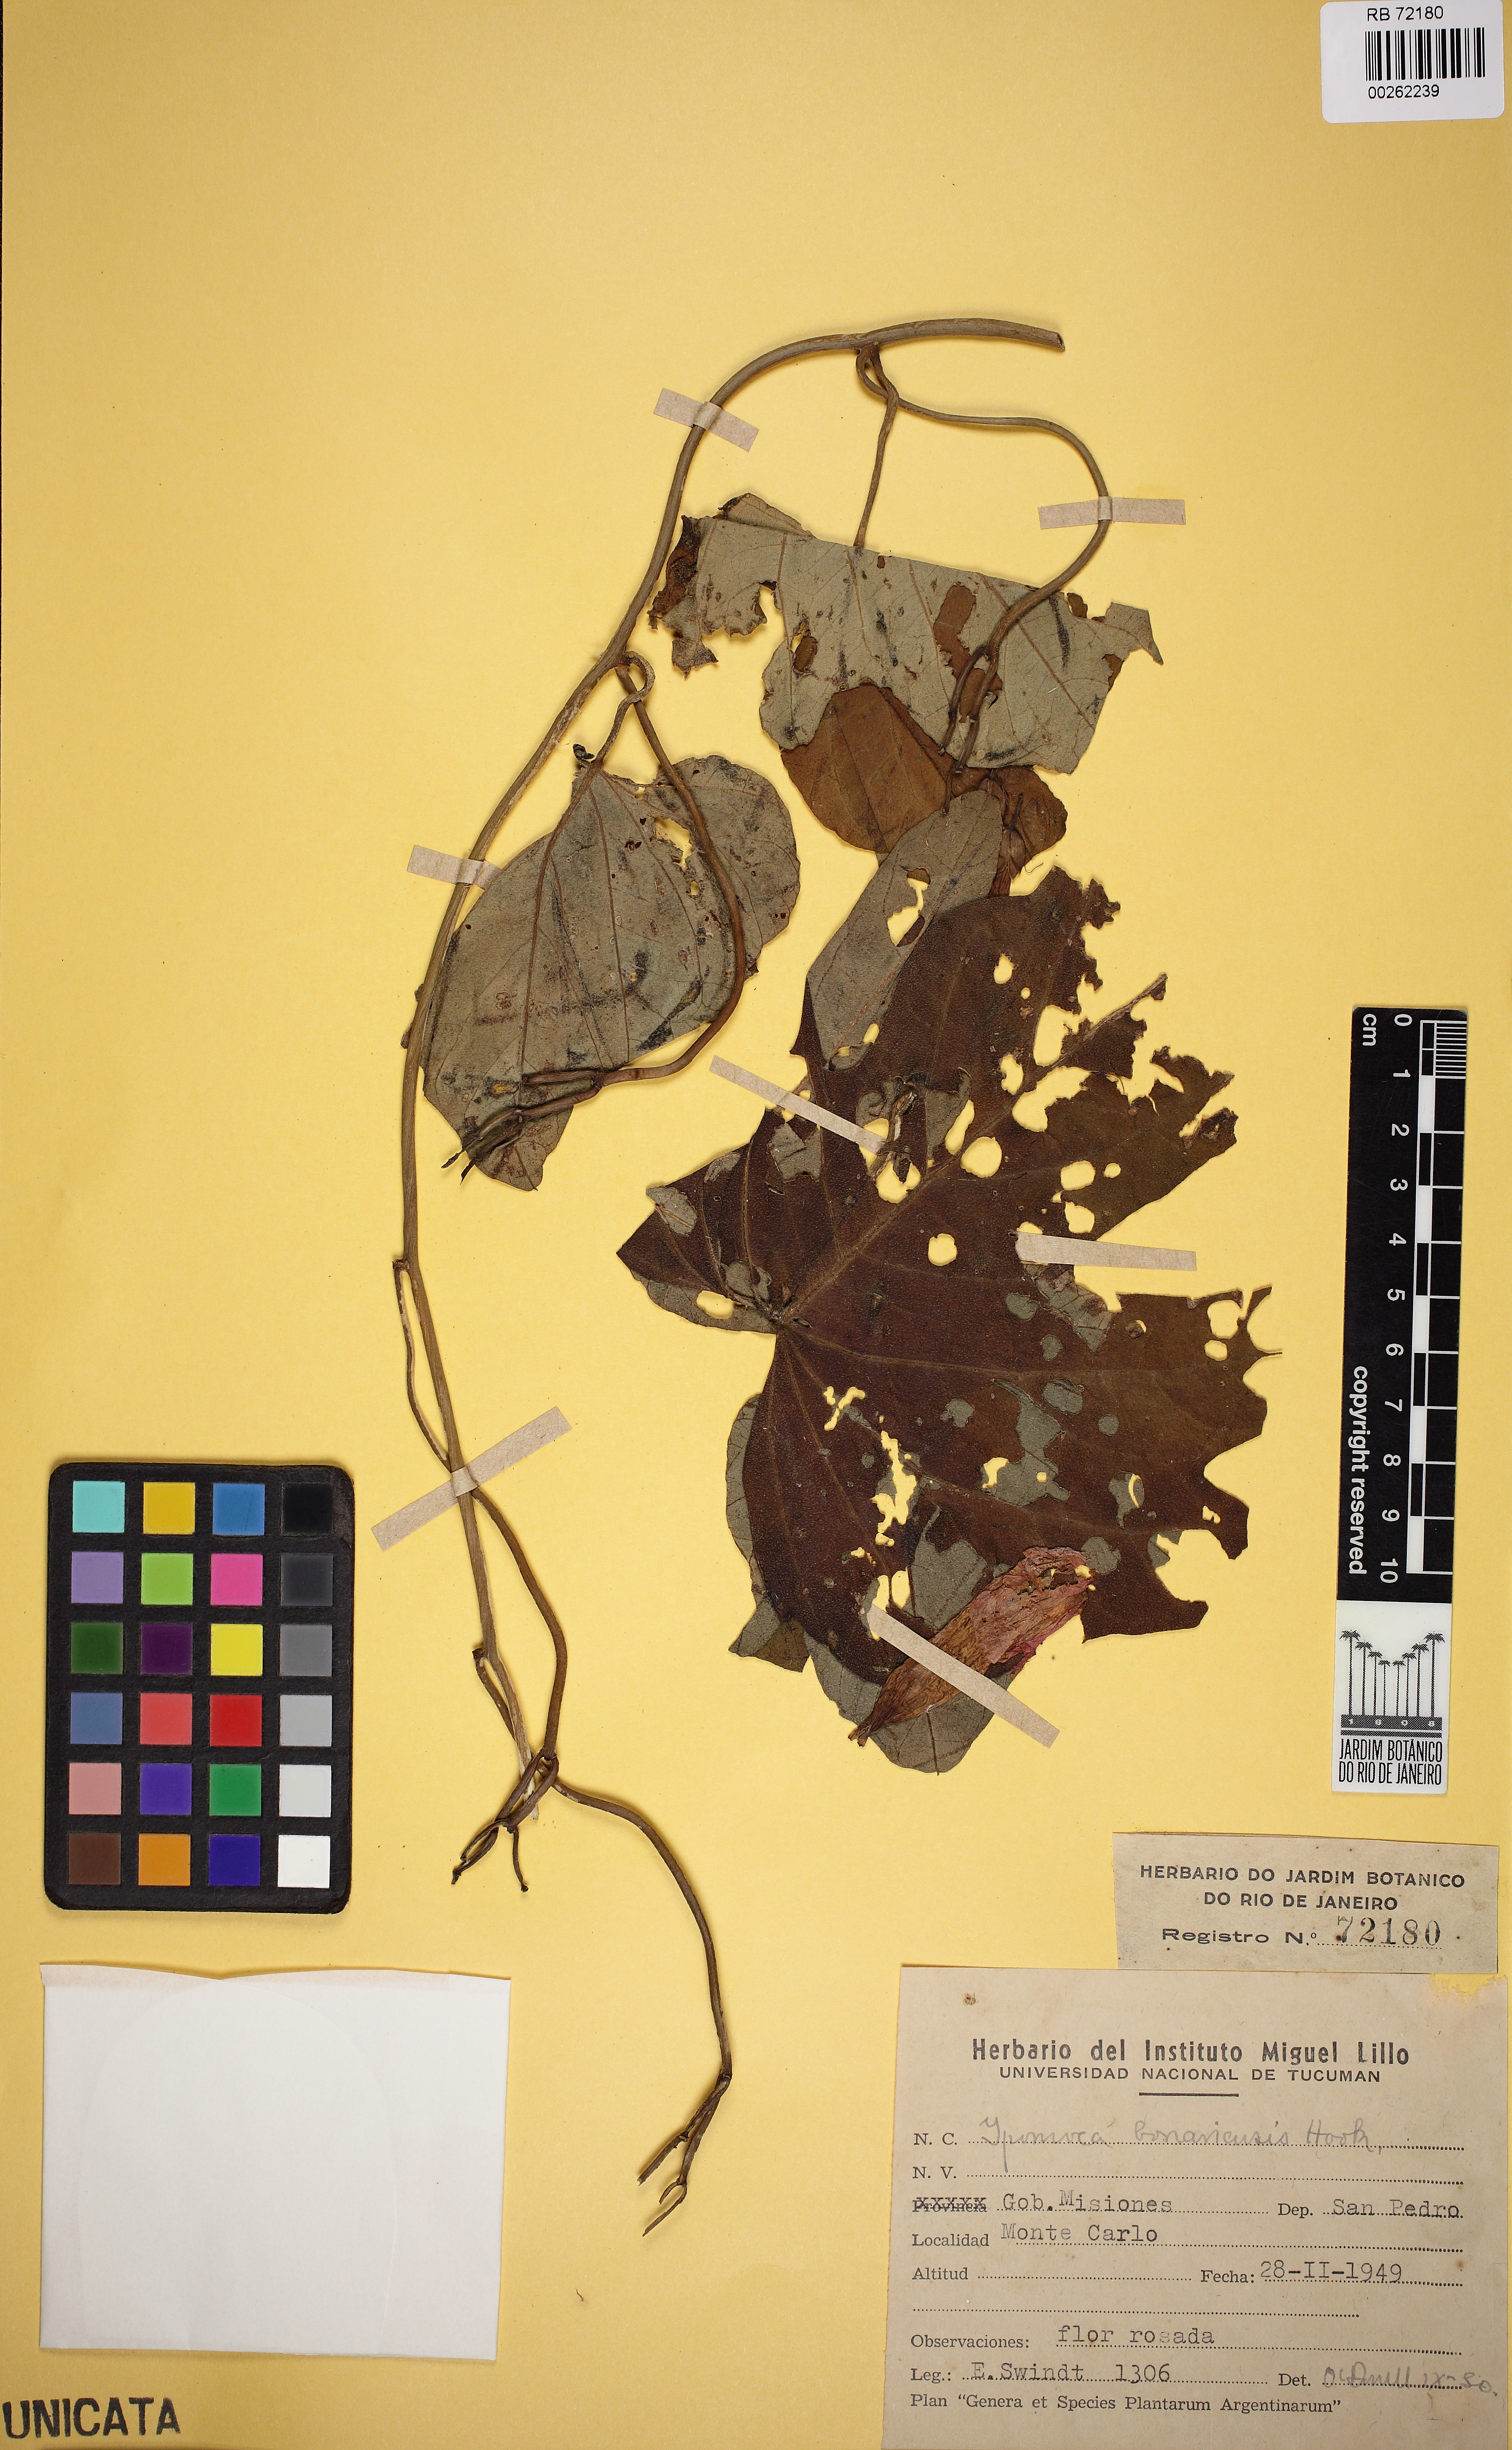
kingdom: Plantae
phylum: Tracheophyta
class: Magnoliopsida
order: Solanales
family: Convolvulaceae
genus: Ipomoea
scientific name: Ipomoea bonariensis
